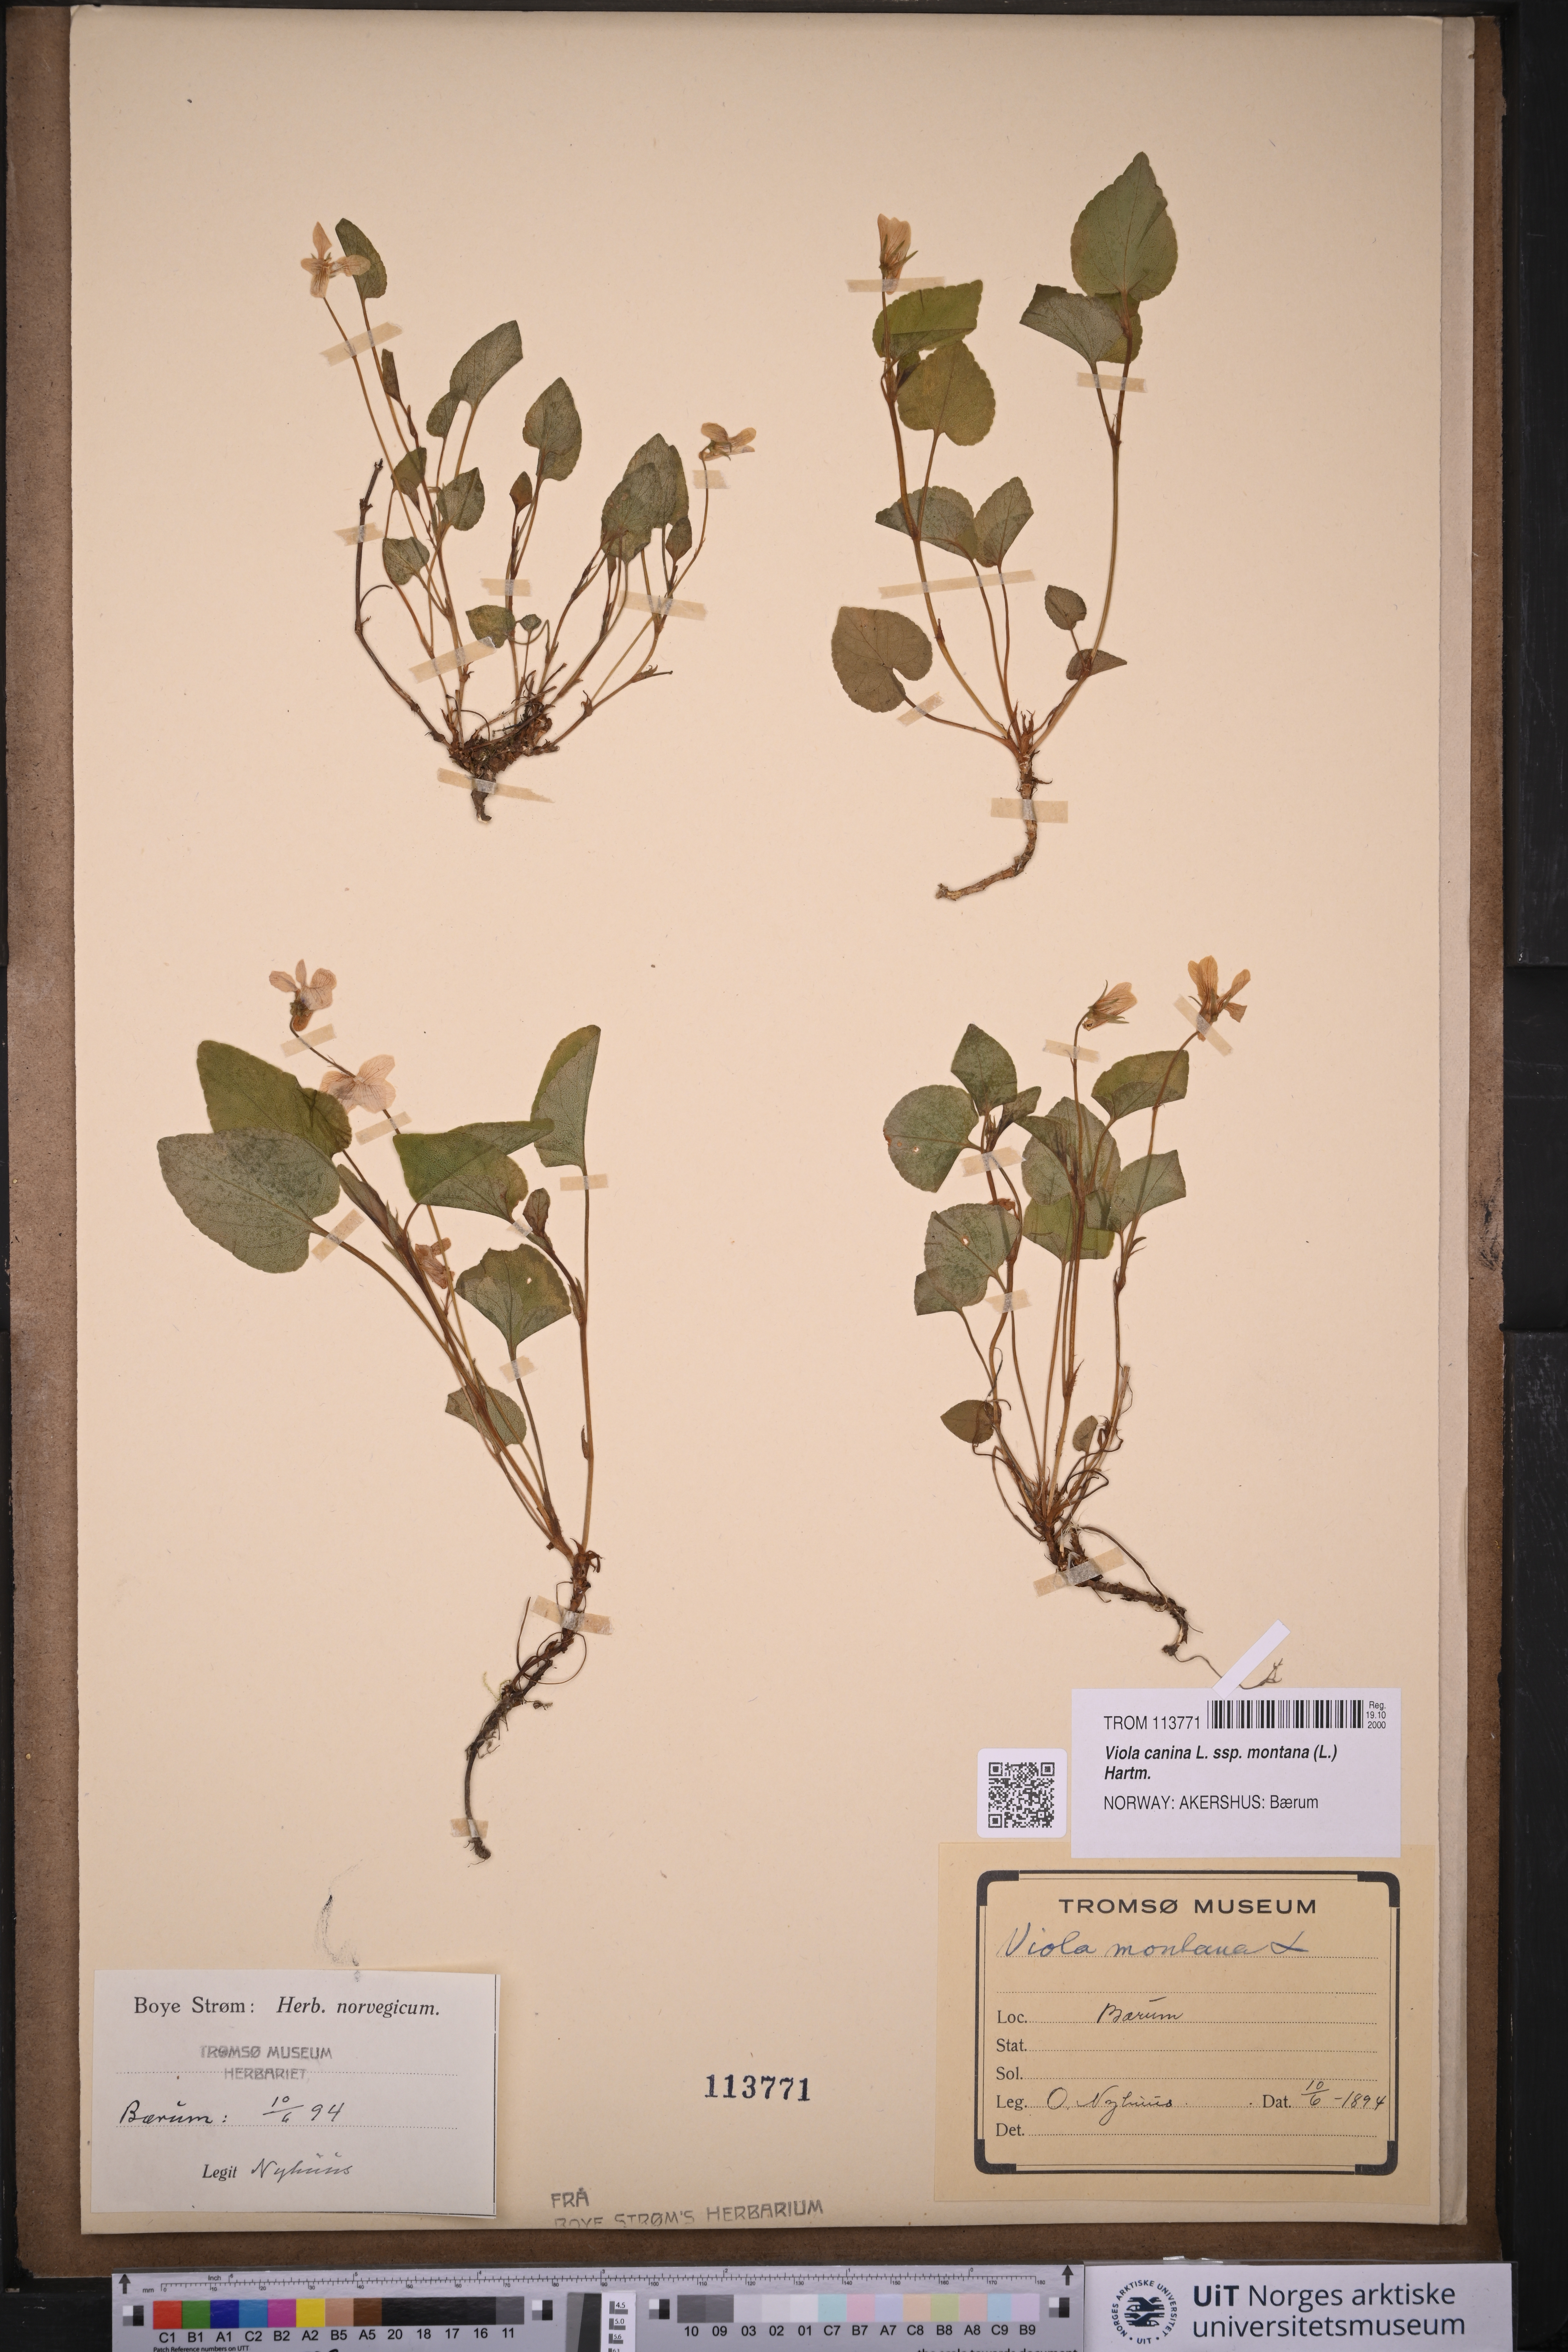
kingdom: Plantae
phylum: Tracheophyta
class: Magnoliopsida
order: Malpighiales
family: Violaceae
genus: Viola
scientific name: Viola ruppii
